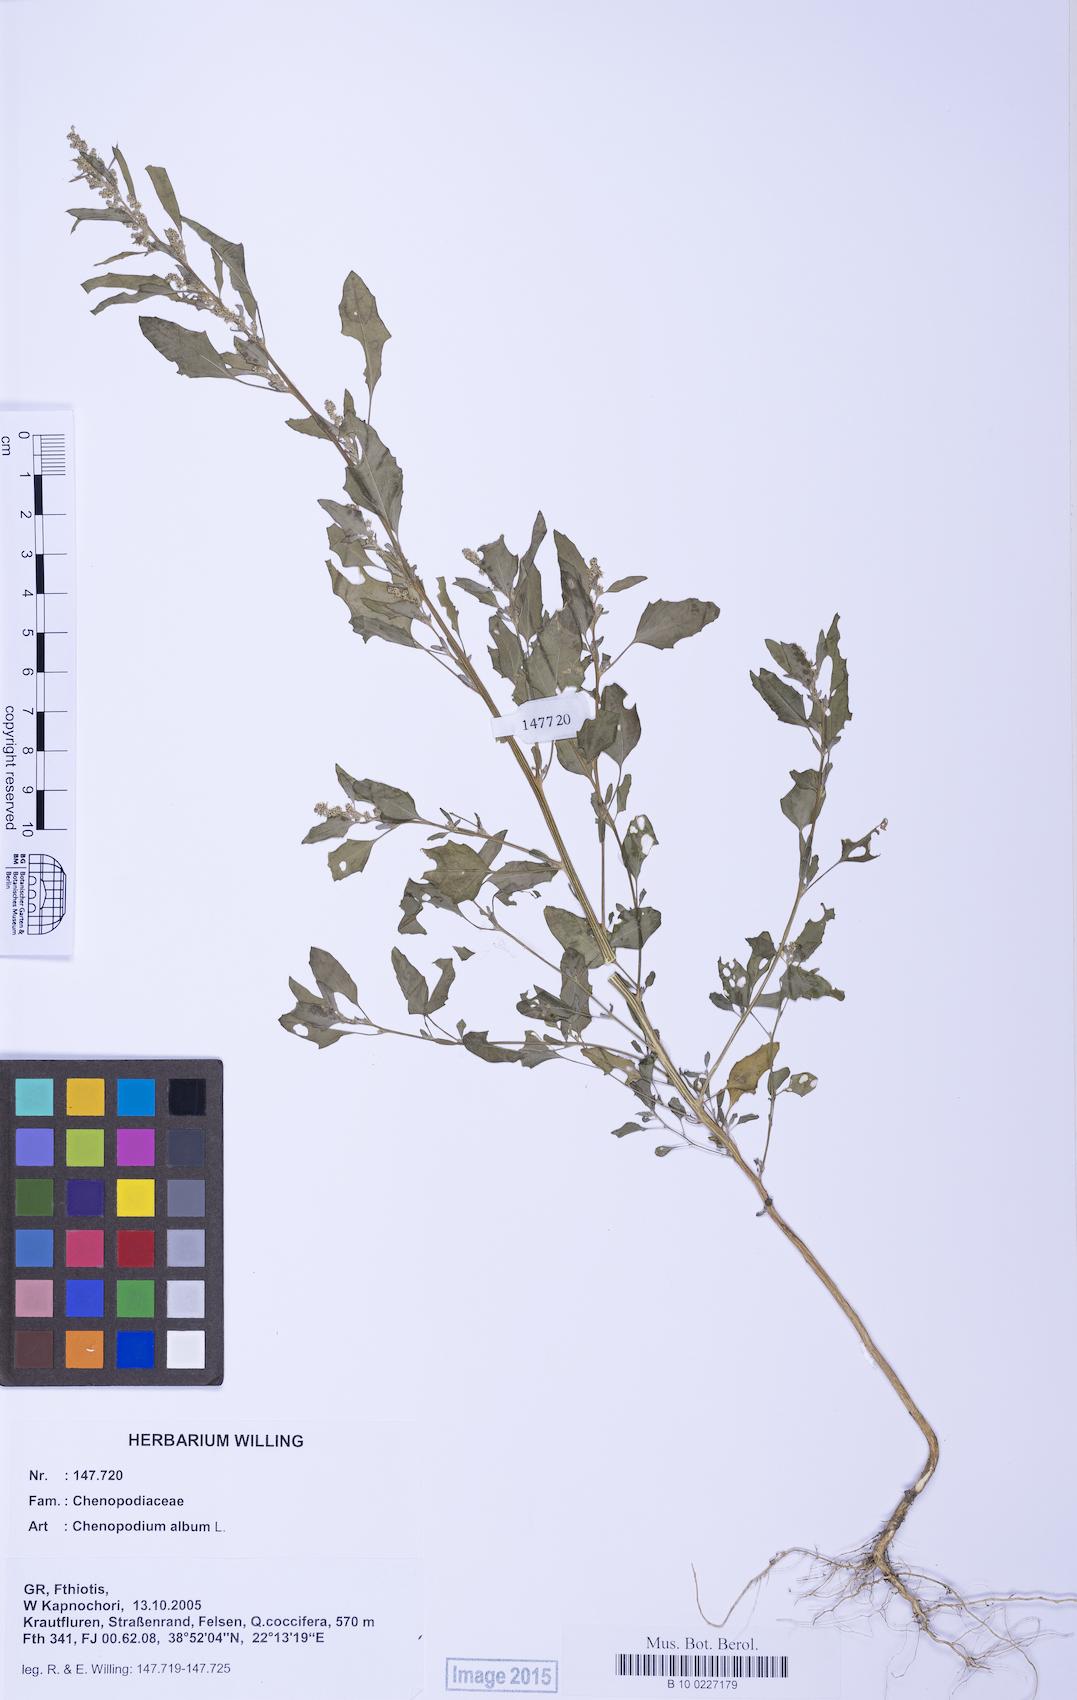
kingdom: Plantae
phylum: Tracheophyta
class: Magnoliopsida
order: Caryophyllales
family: Amaranthaceae
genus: Chenopodium
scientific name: Chenopodium album
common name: Fat-hen
